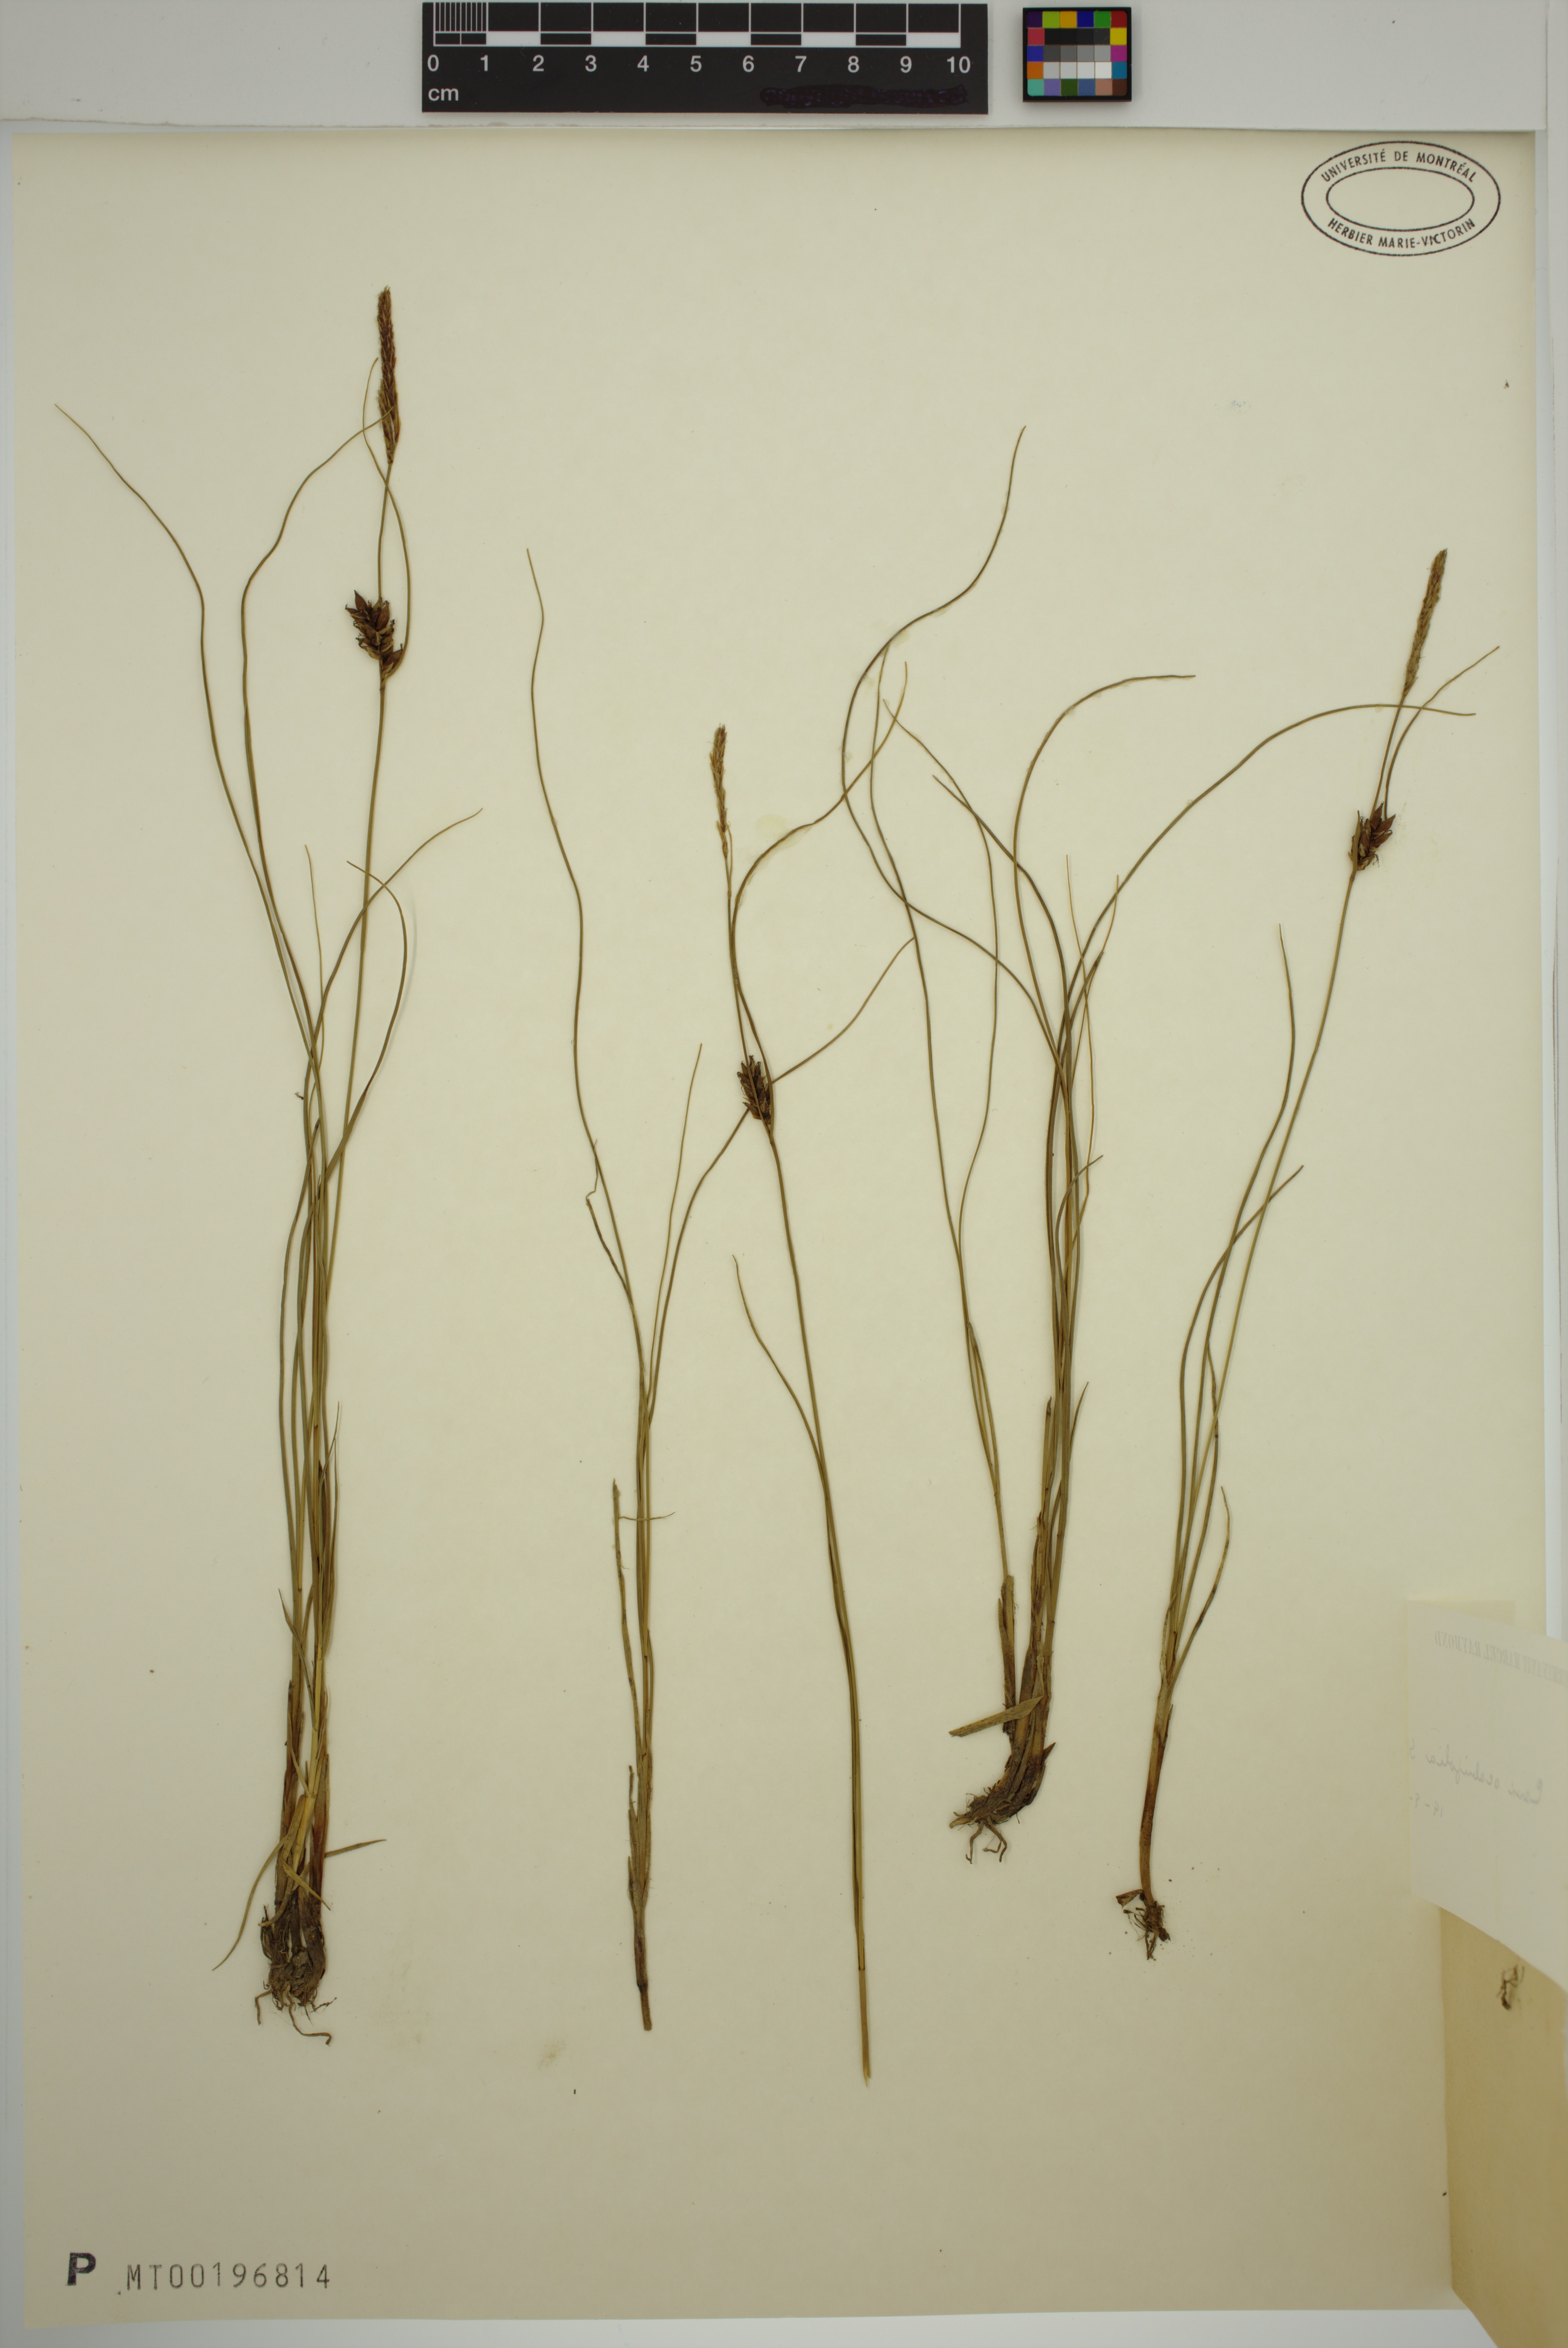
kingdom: Plantae
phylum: Tracheophyta
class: Liliopsida
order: Poales
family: Cyperaceae
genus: Carex
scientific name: Carex scabrifolia
